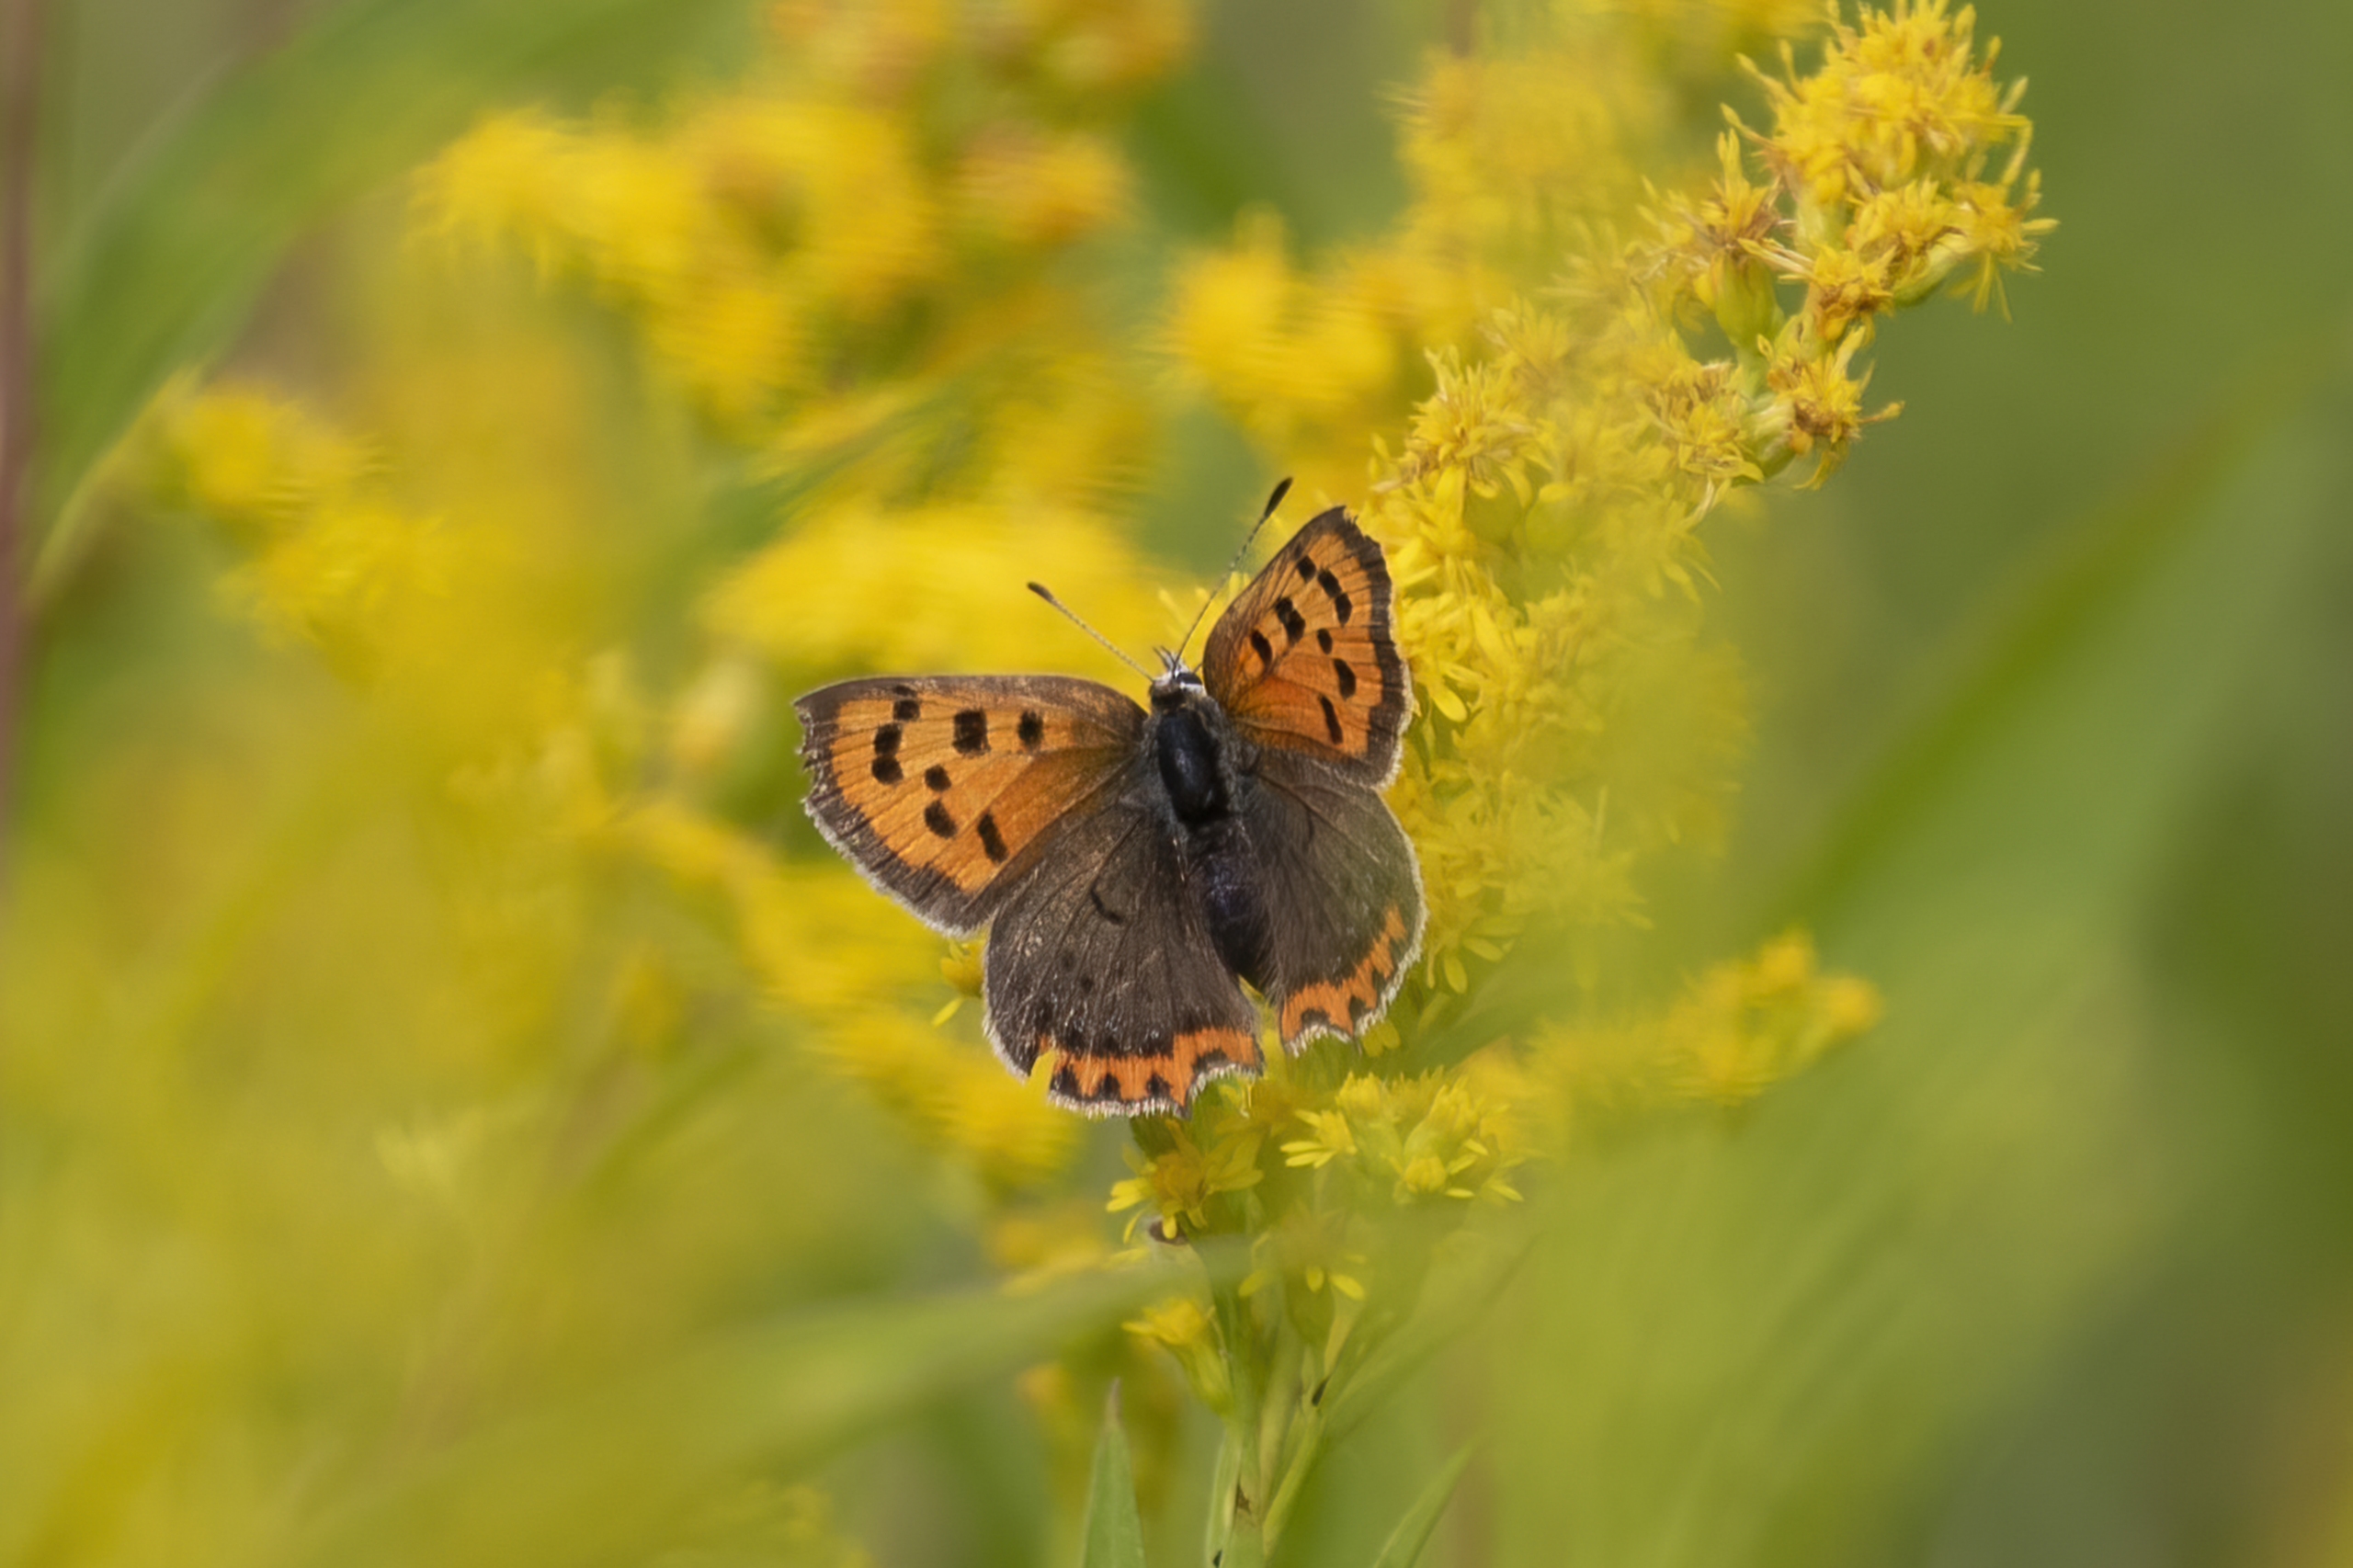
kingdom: Animalia
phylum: Arthropoda
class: Insecta
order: Lepidoptera
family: Lycaenidae
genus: Lycaena
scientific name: Lycaena phlaeas
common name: Lille ildfugl
